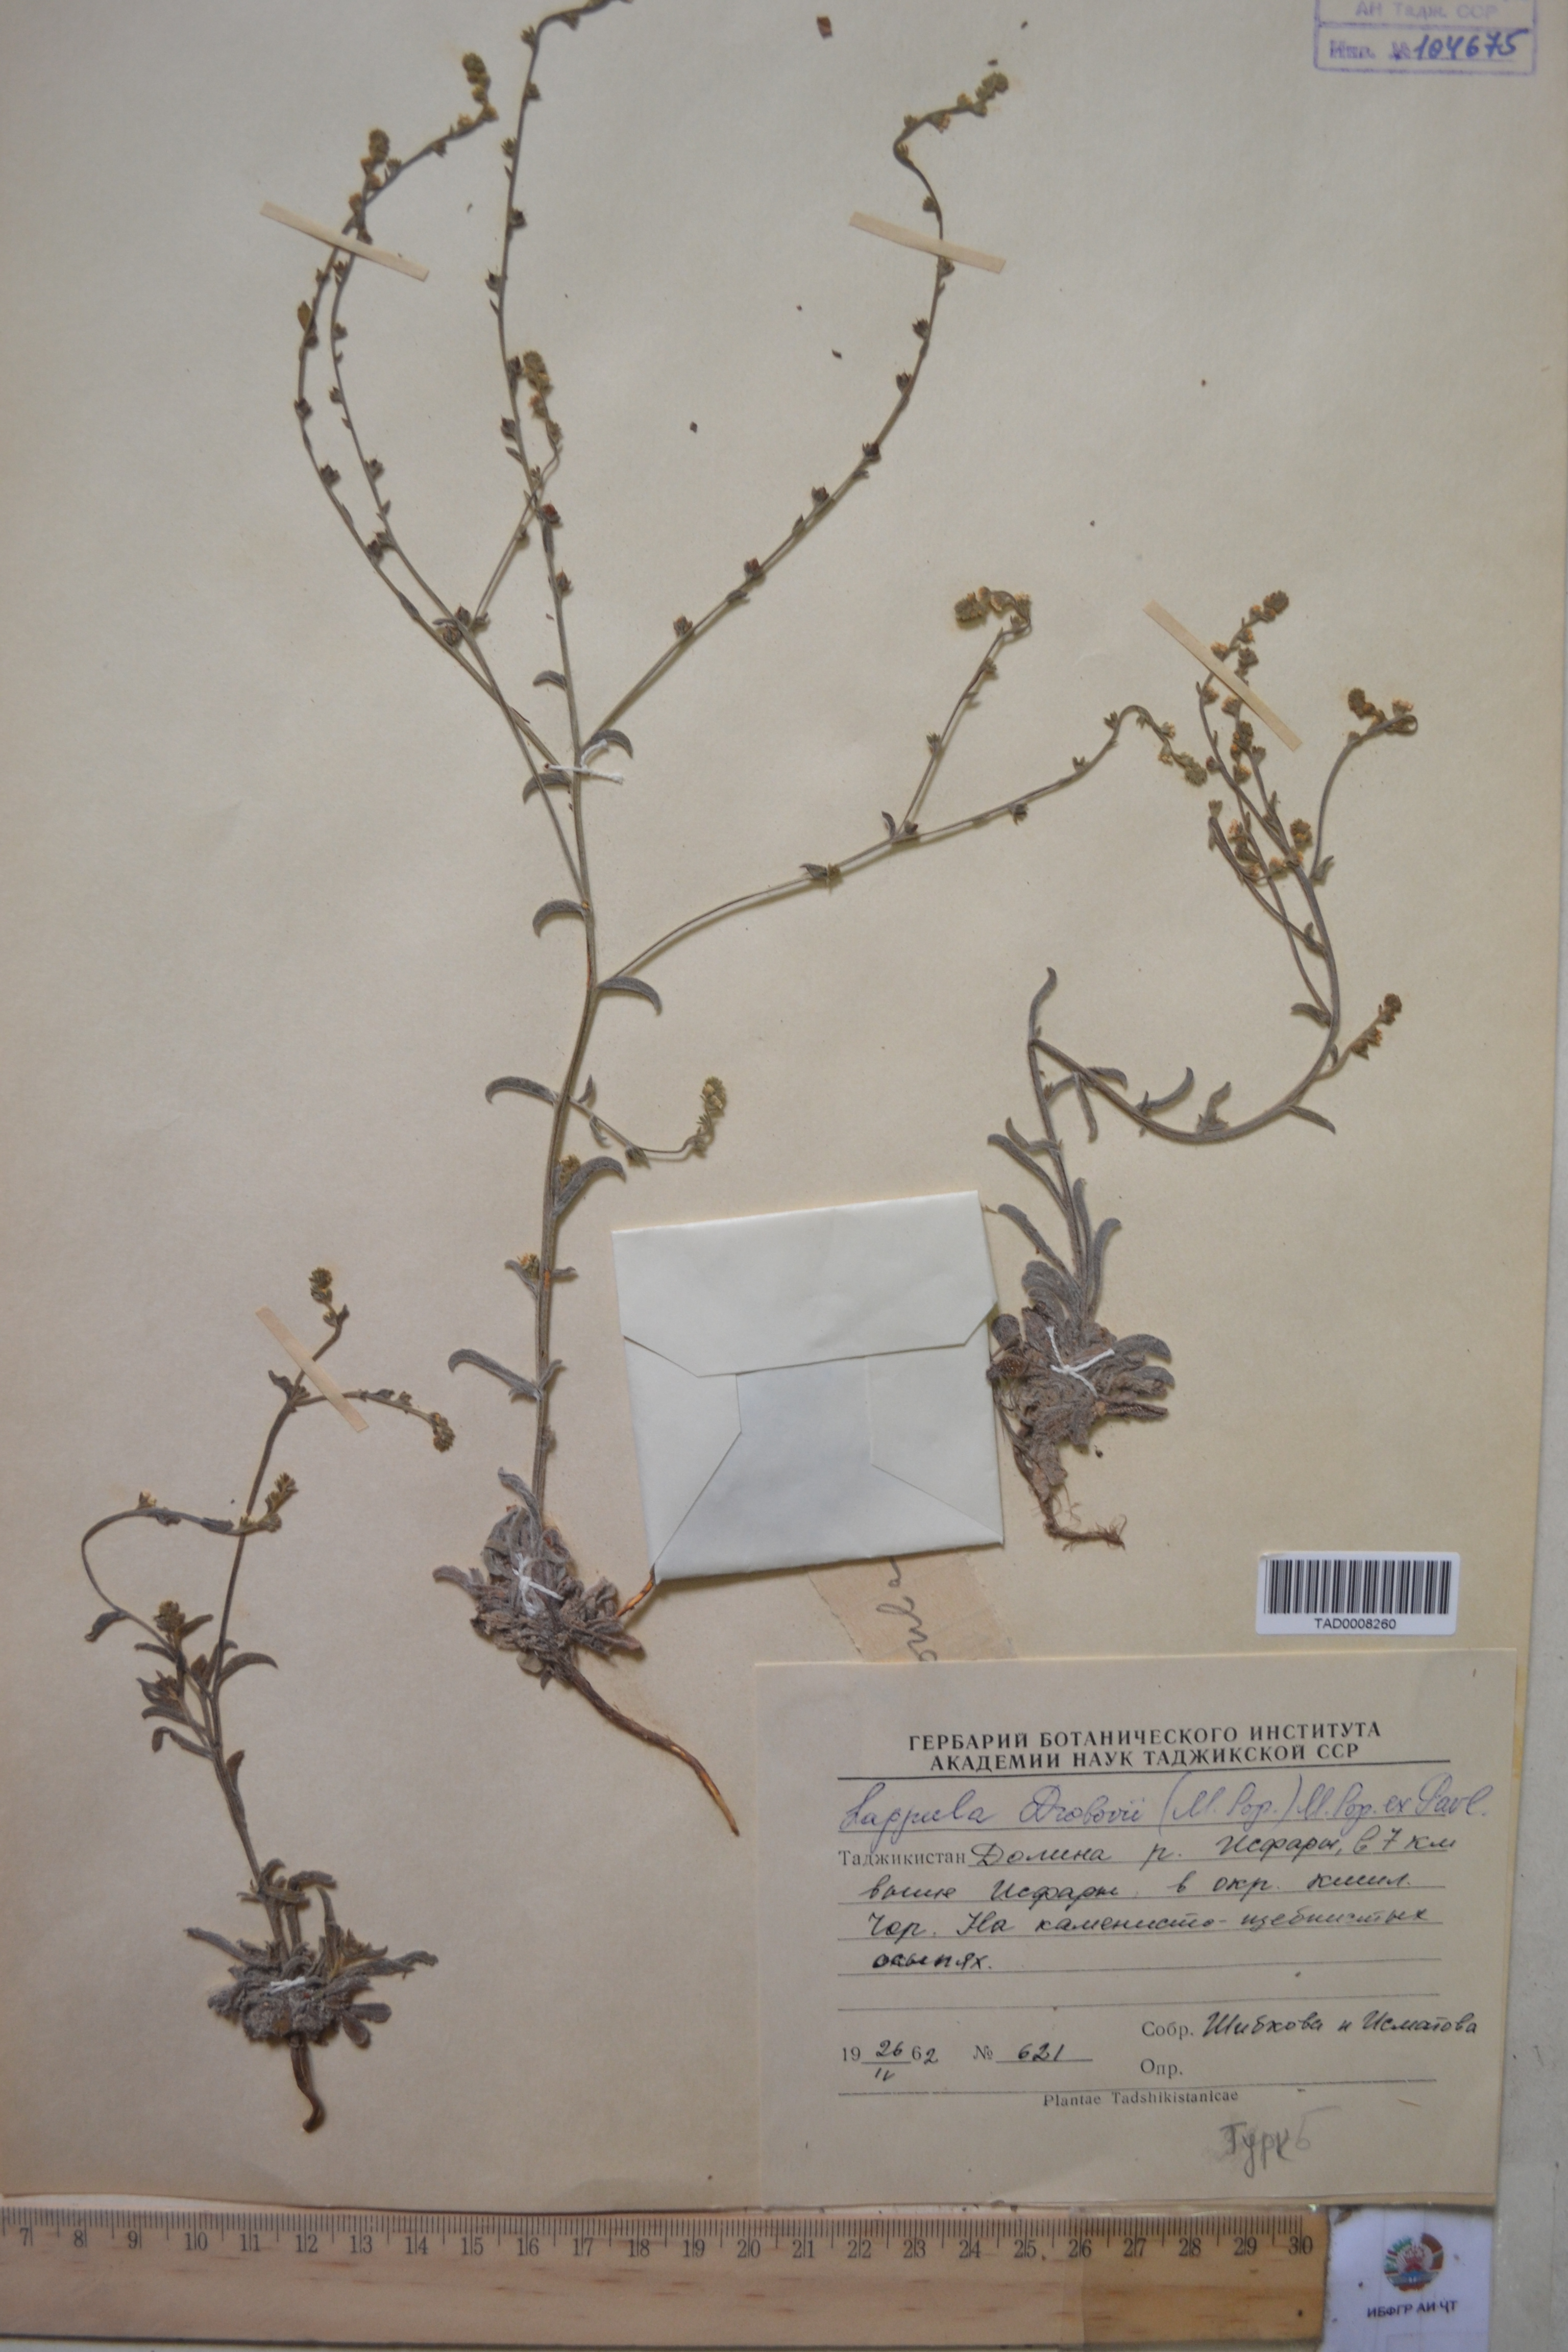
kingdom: Plantae
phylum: Tracheophyta
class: Magnoliopsida
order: Boraginales
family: Boraginaceae
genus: Rochelia
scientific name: Rochelia drobovii
